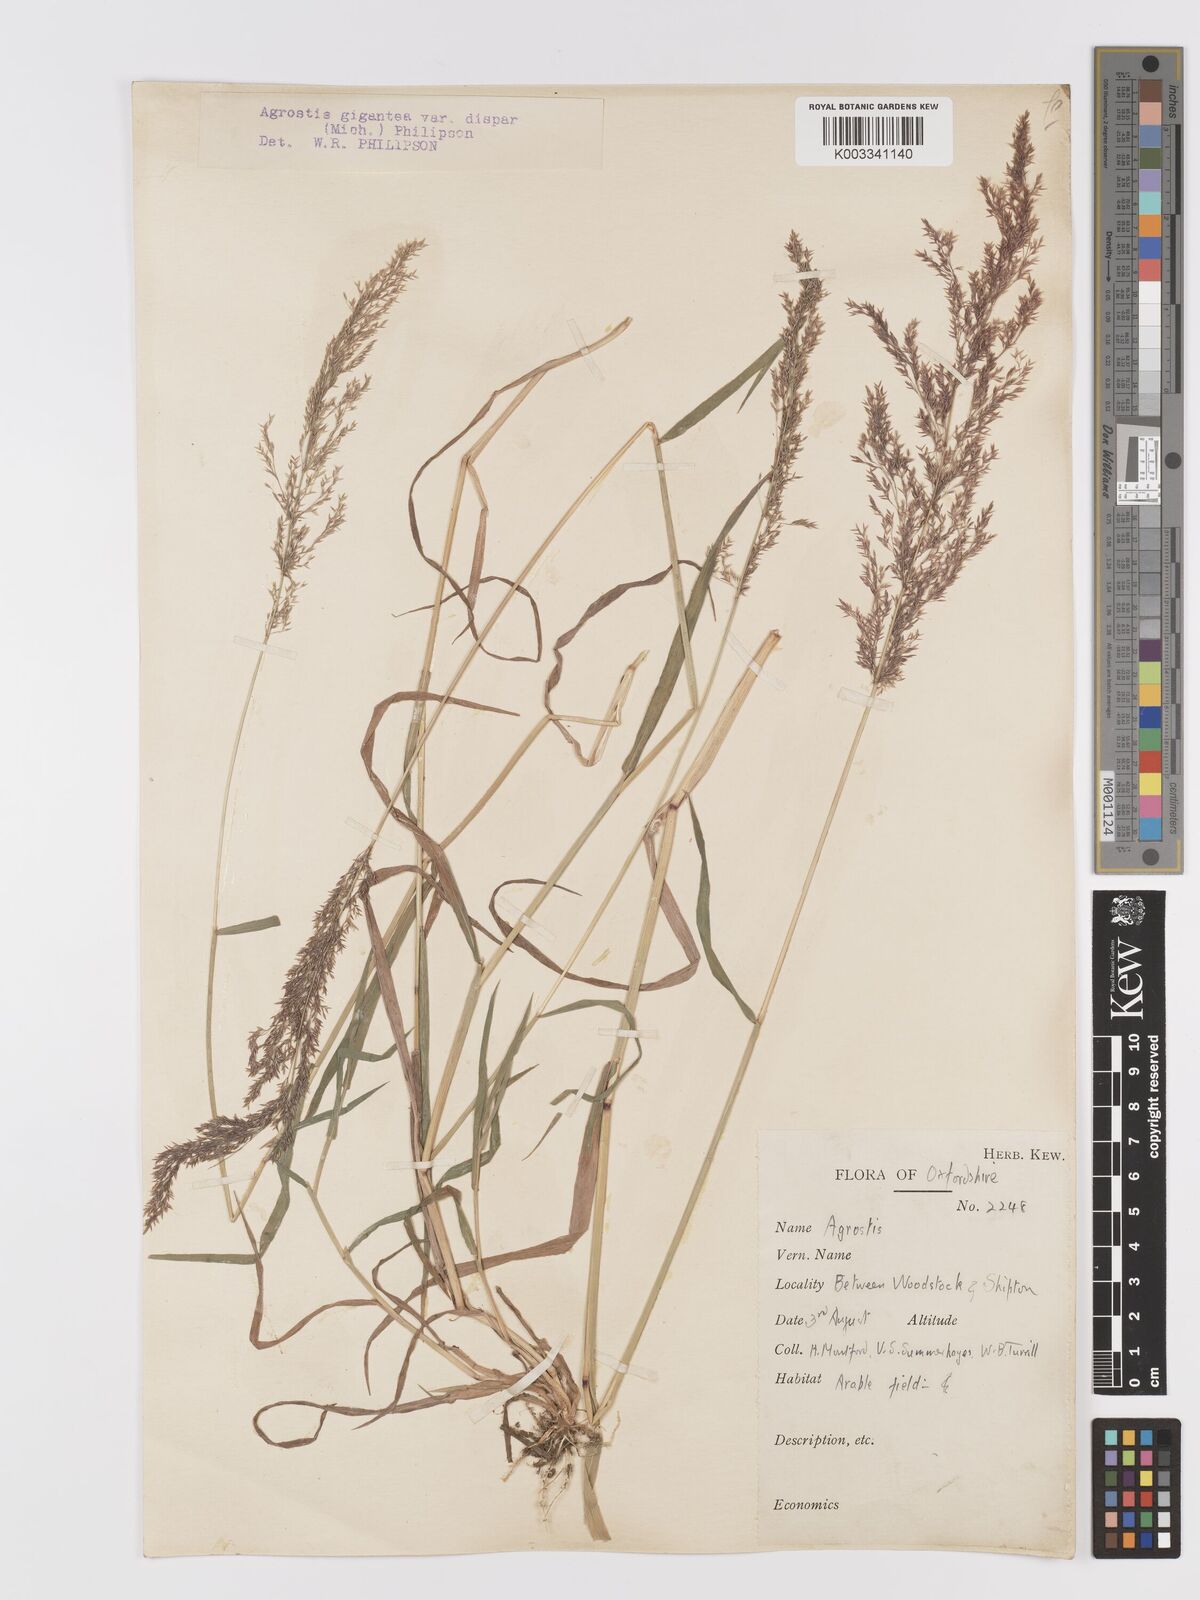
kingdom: Plantae
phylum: Tracheophyta
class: Liliopsida
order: Poales
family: Poaceae
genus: Agrostis
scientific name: Agrostis gigantea
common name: Black bent
